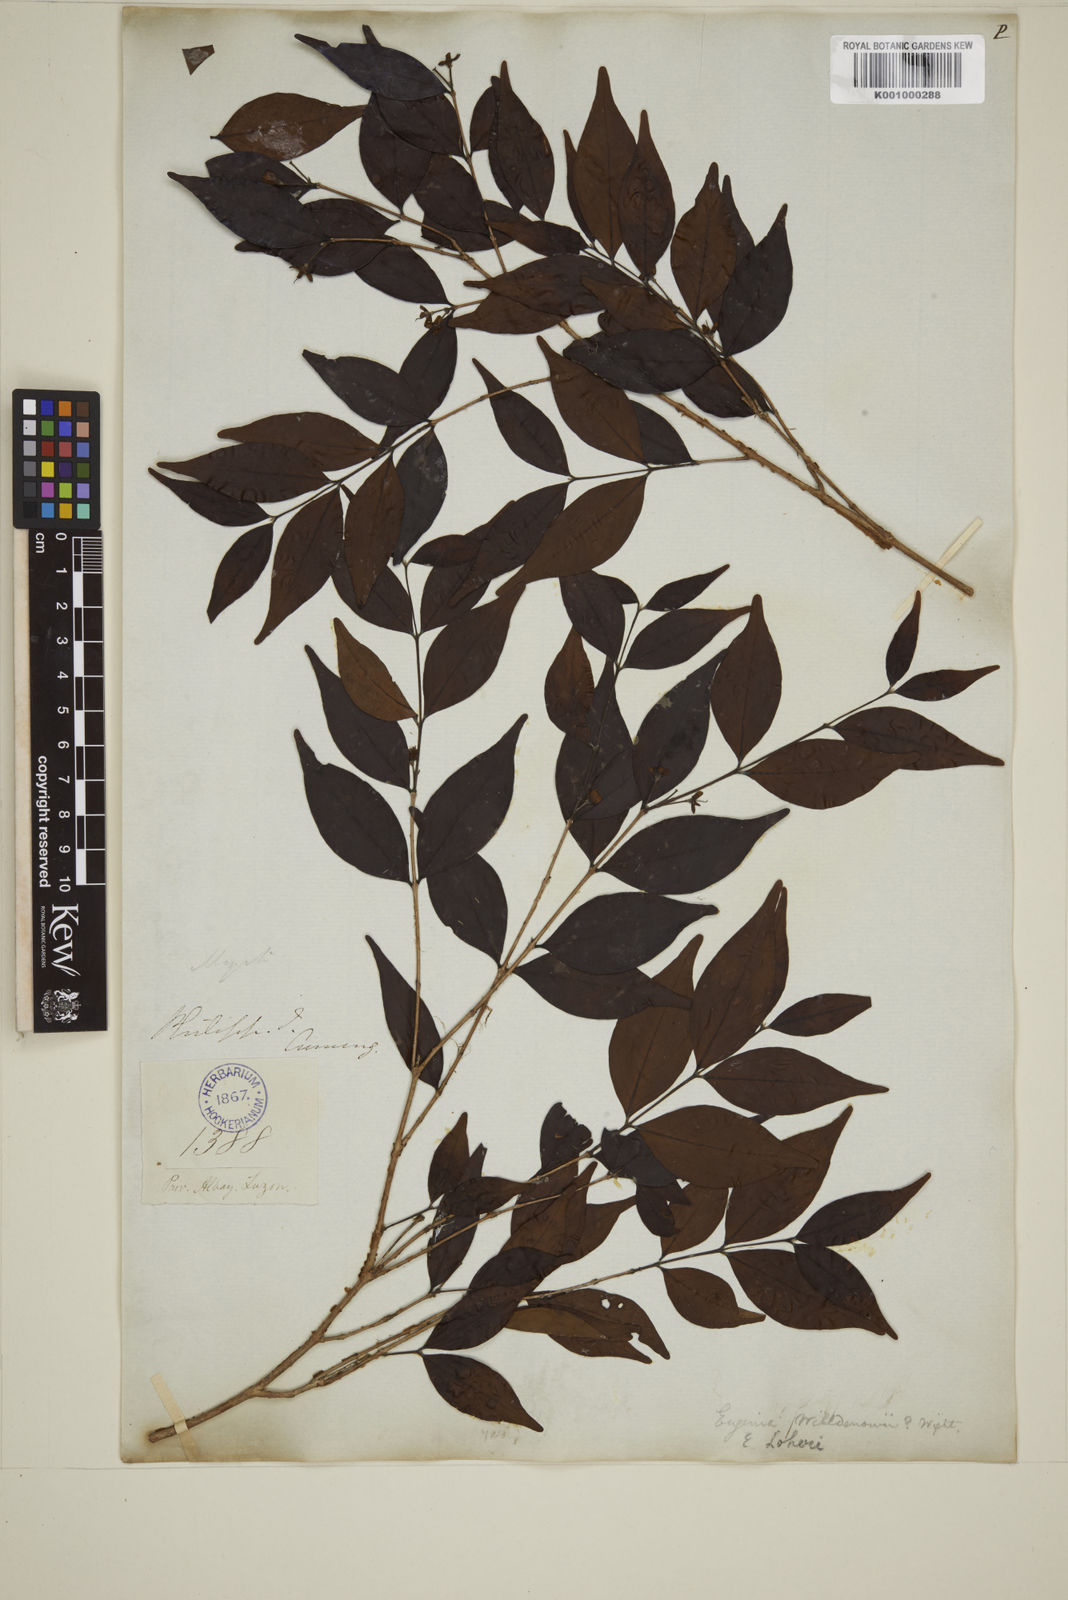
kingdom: Plantae
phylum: Tracheophyta
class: Magnoliopsida
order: Myrtales
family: Myrtaceae
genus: Eugenia
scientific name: Eugenia loheri
